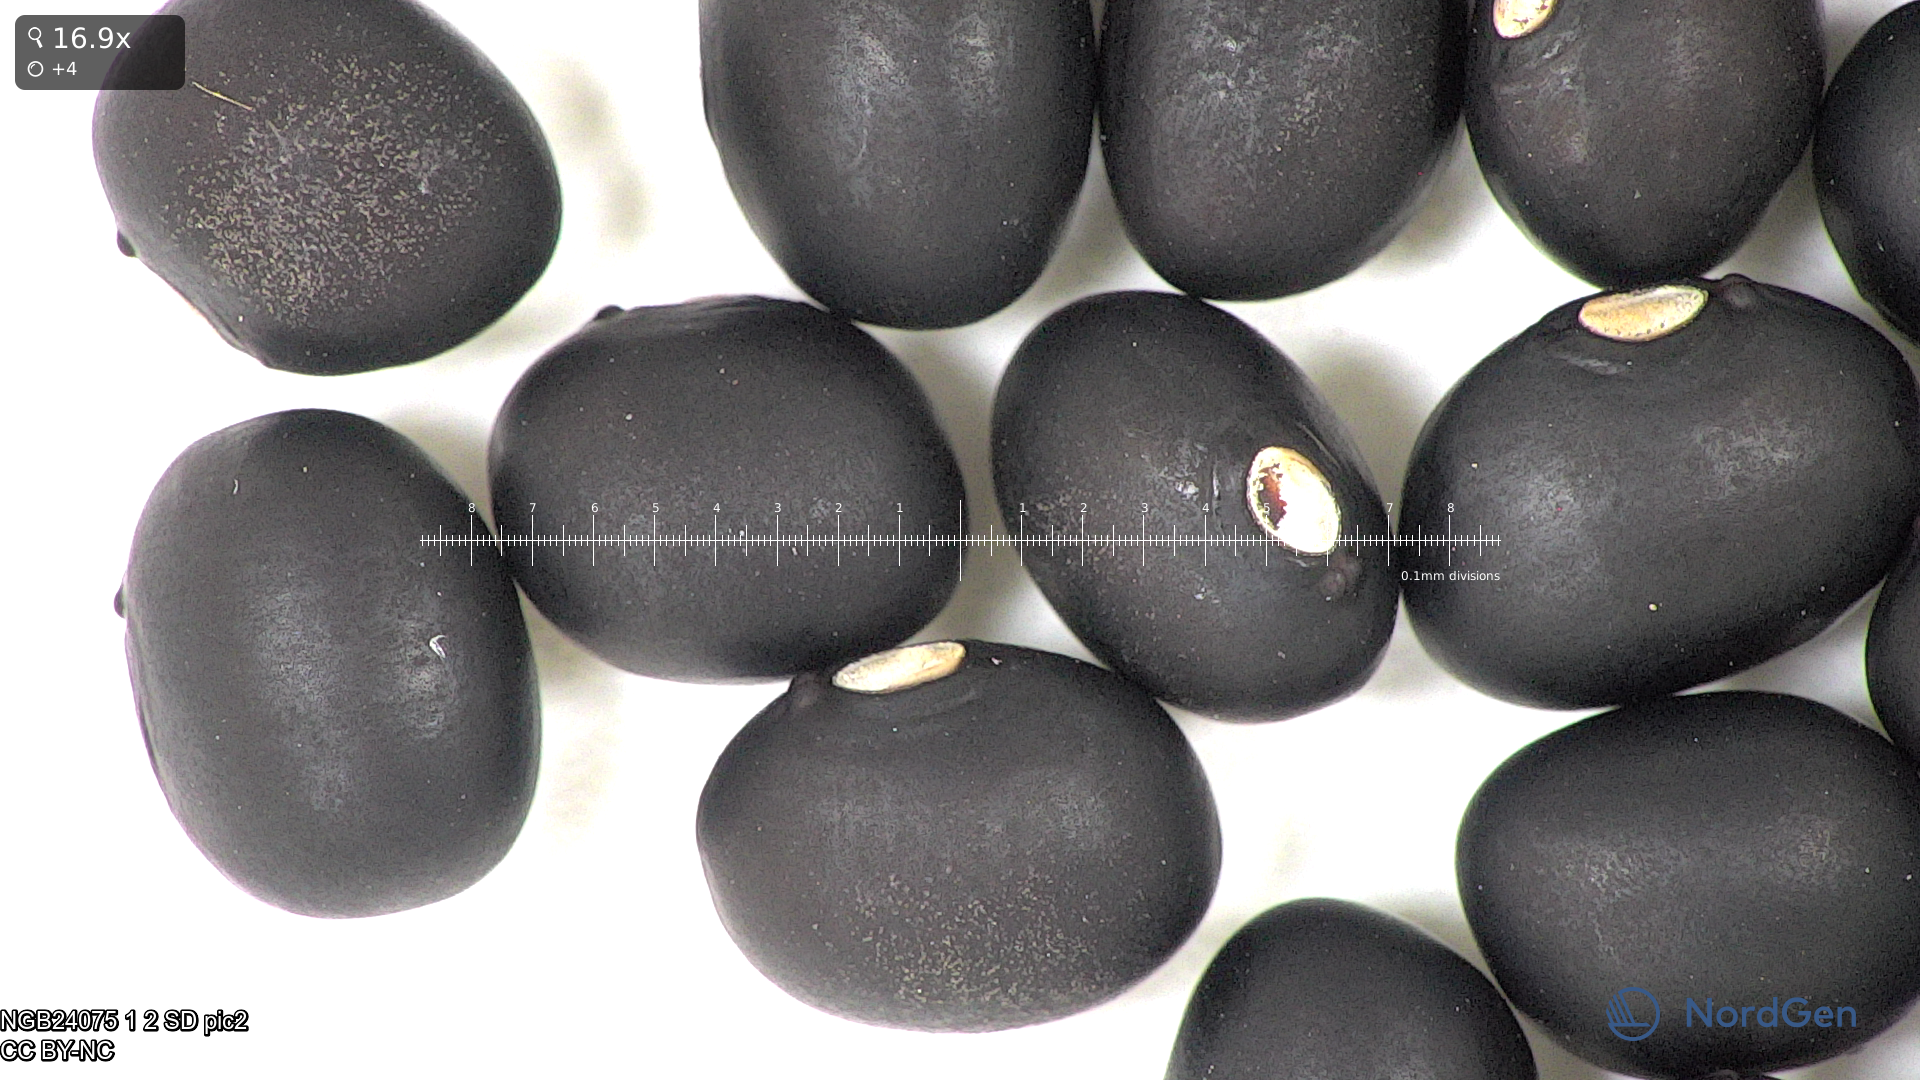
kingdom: Plantae
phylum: Tracheophyta
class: Magnoliopsida
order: Fabales
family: Fabaceae
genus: Phaseolus
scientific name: Phaseolus vulgaris
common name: Bean
